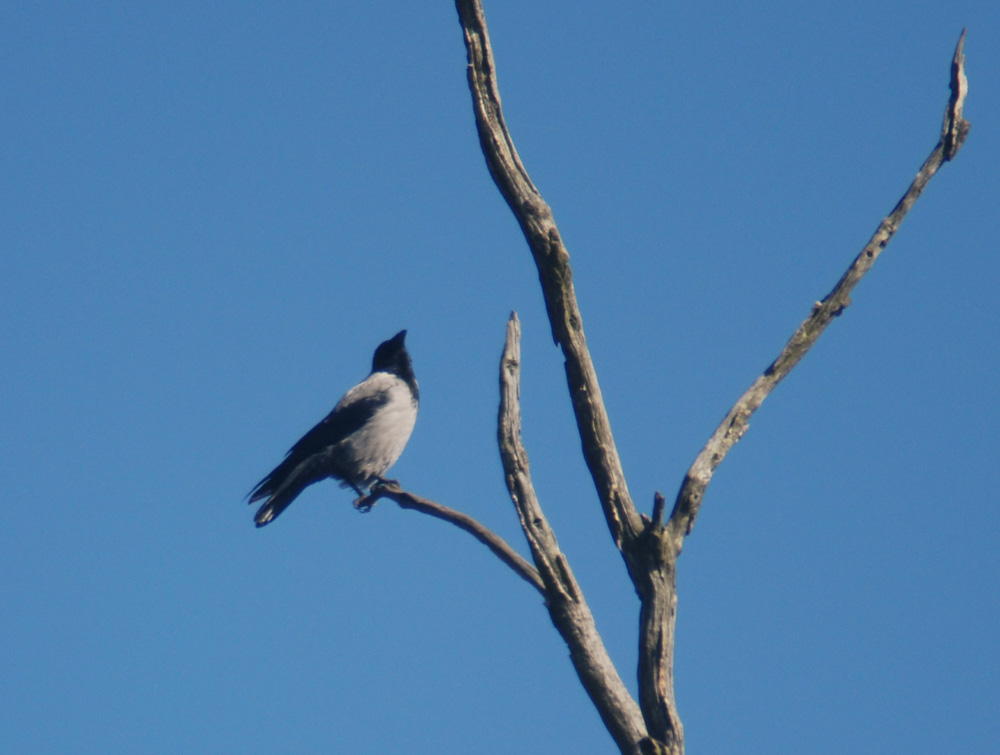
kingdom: Animalia
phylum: Chordata
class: Aves
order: Passeriformes
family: Corvidae
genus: Corvus
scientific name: Corvus cornix
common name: Hooded crow
